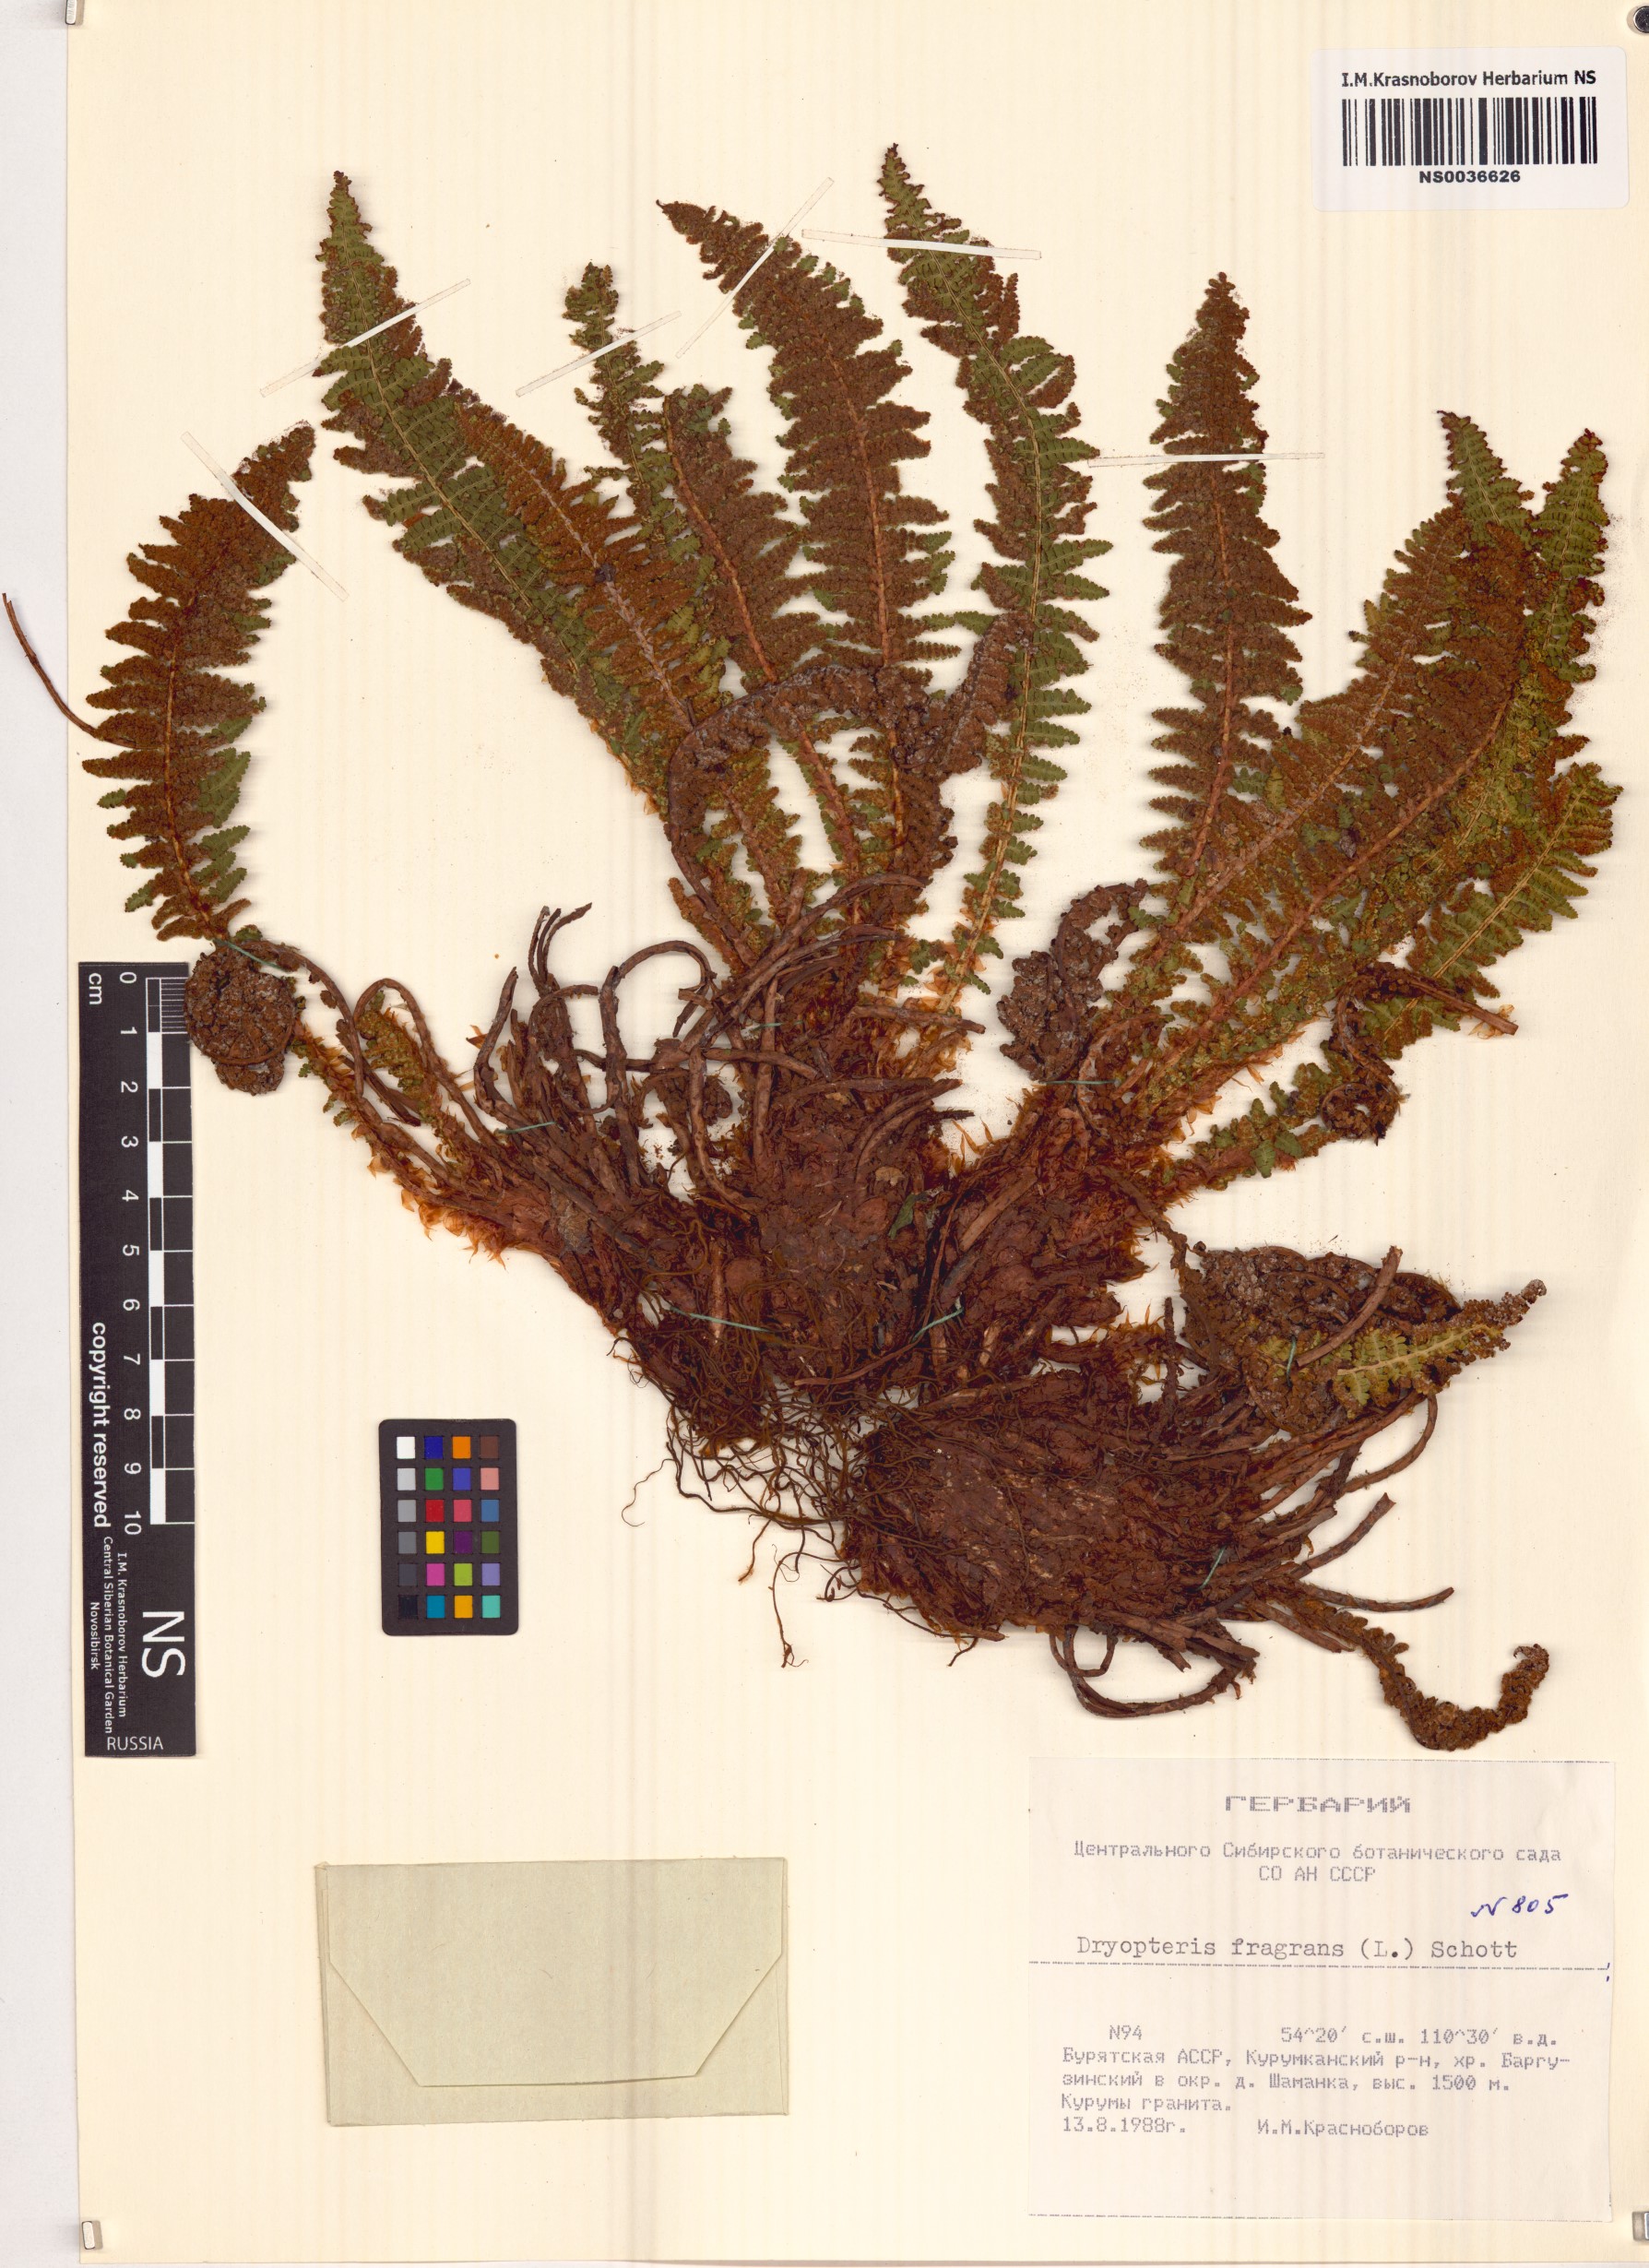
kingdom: Plantae
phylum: Tracheophyta
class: Polypodiopsida
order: Polypodiales
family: Dryopteridaceae
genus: Dryopteris
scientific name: Dryopteris fragrans
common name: Fragrant wood fern
